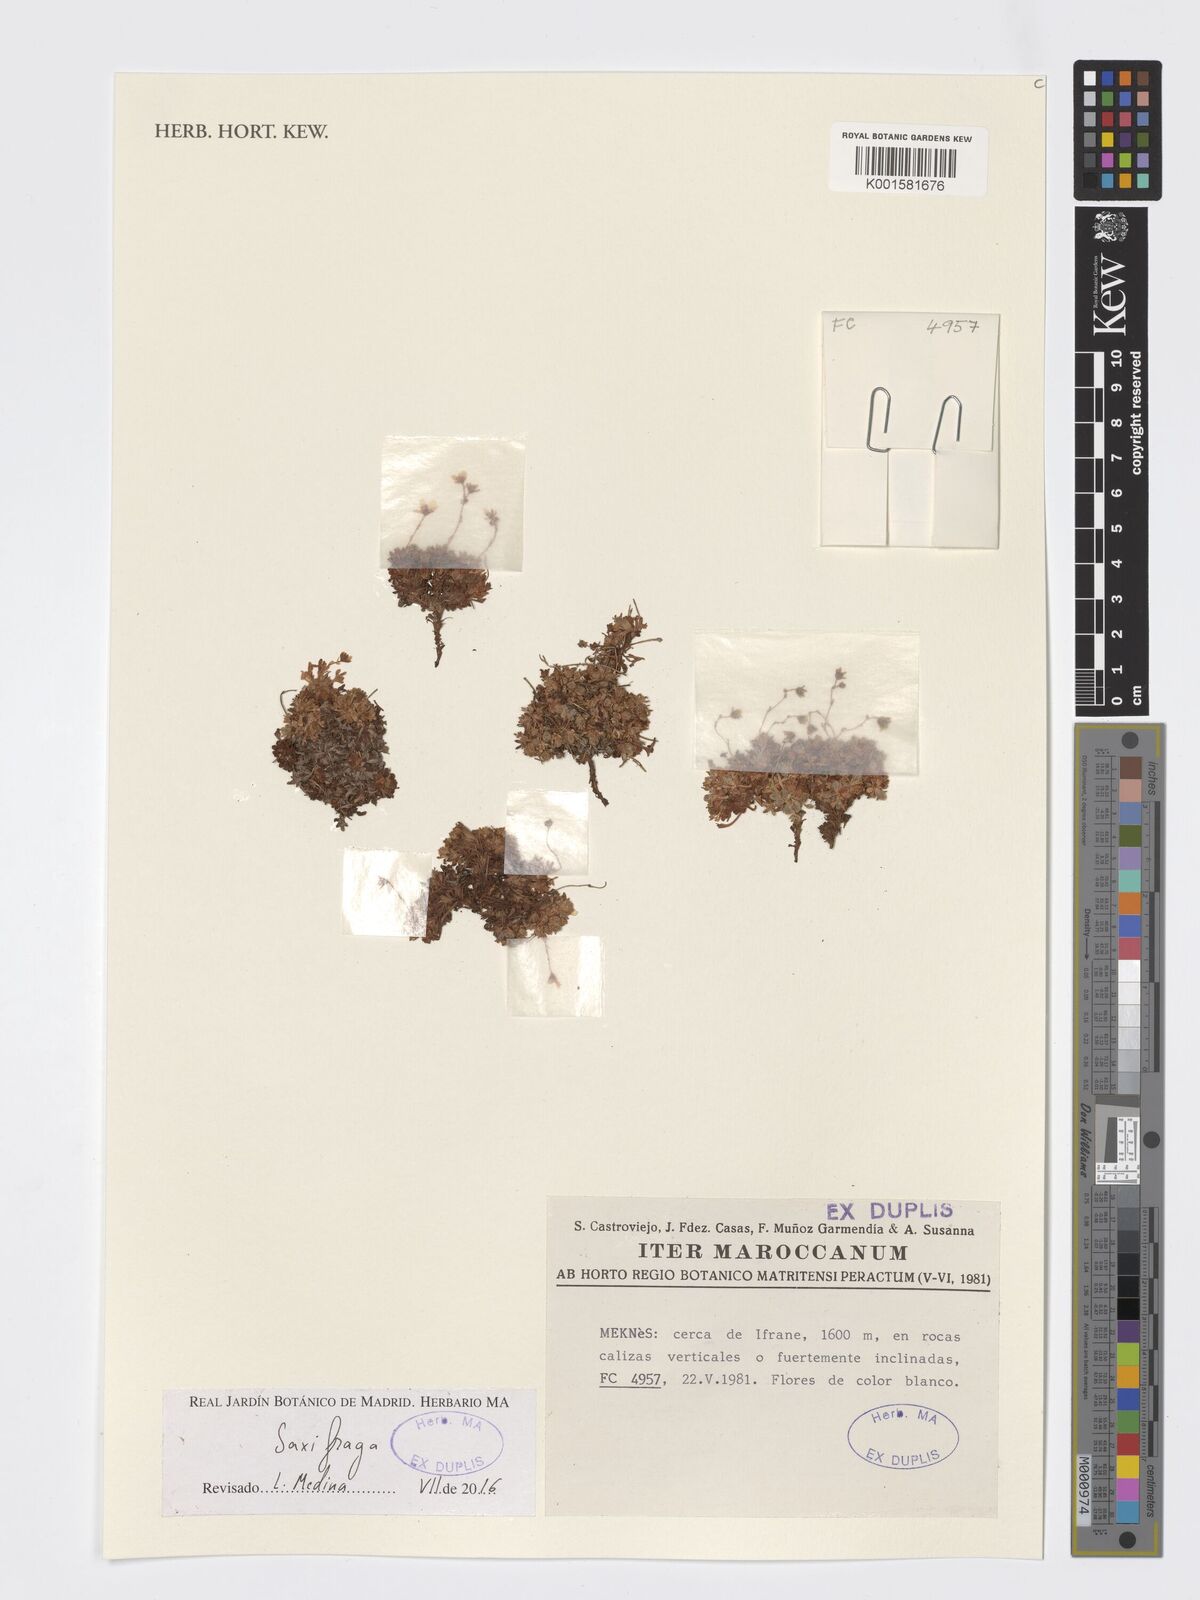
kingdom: Plantae
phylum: Tracheophyta
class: Magnoliopsida
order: Saxifragales
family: Saxifragaceae
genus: Saxifraga
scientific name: Saxifraga
